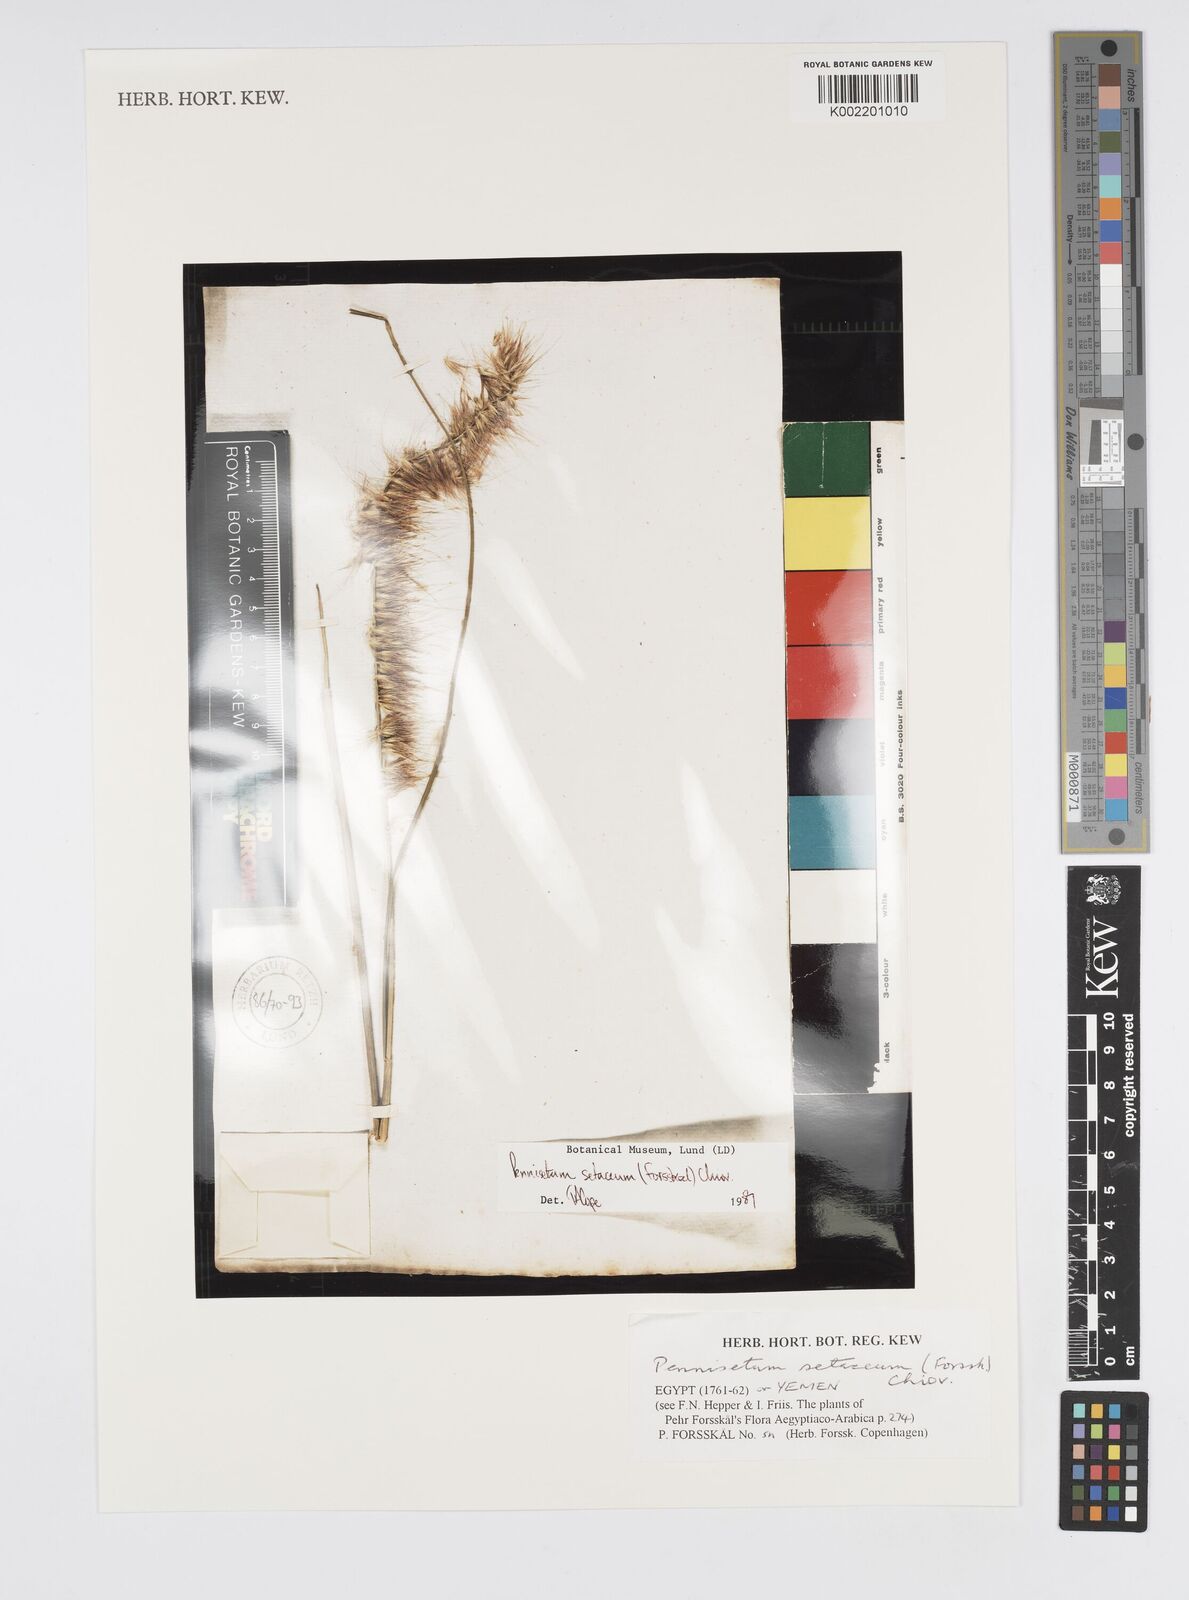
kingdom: Plantae
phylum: Tracheophyta
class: Liliopsida
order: Poales
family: Poaceae
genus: Cenchrus
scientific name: Cenchrus setaceus
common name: Crimson fountaingrass
